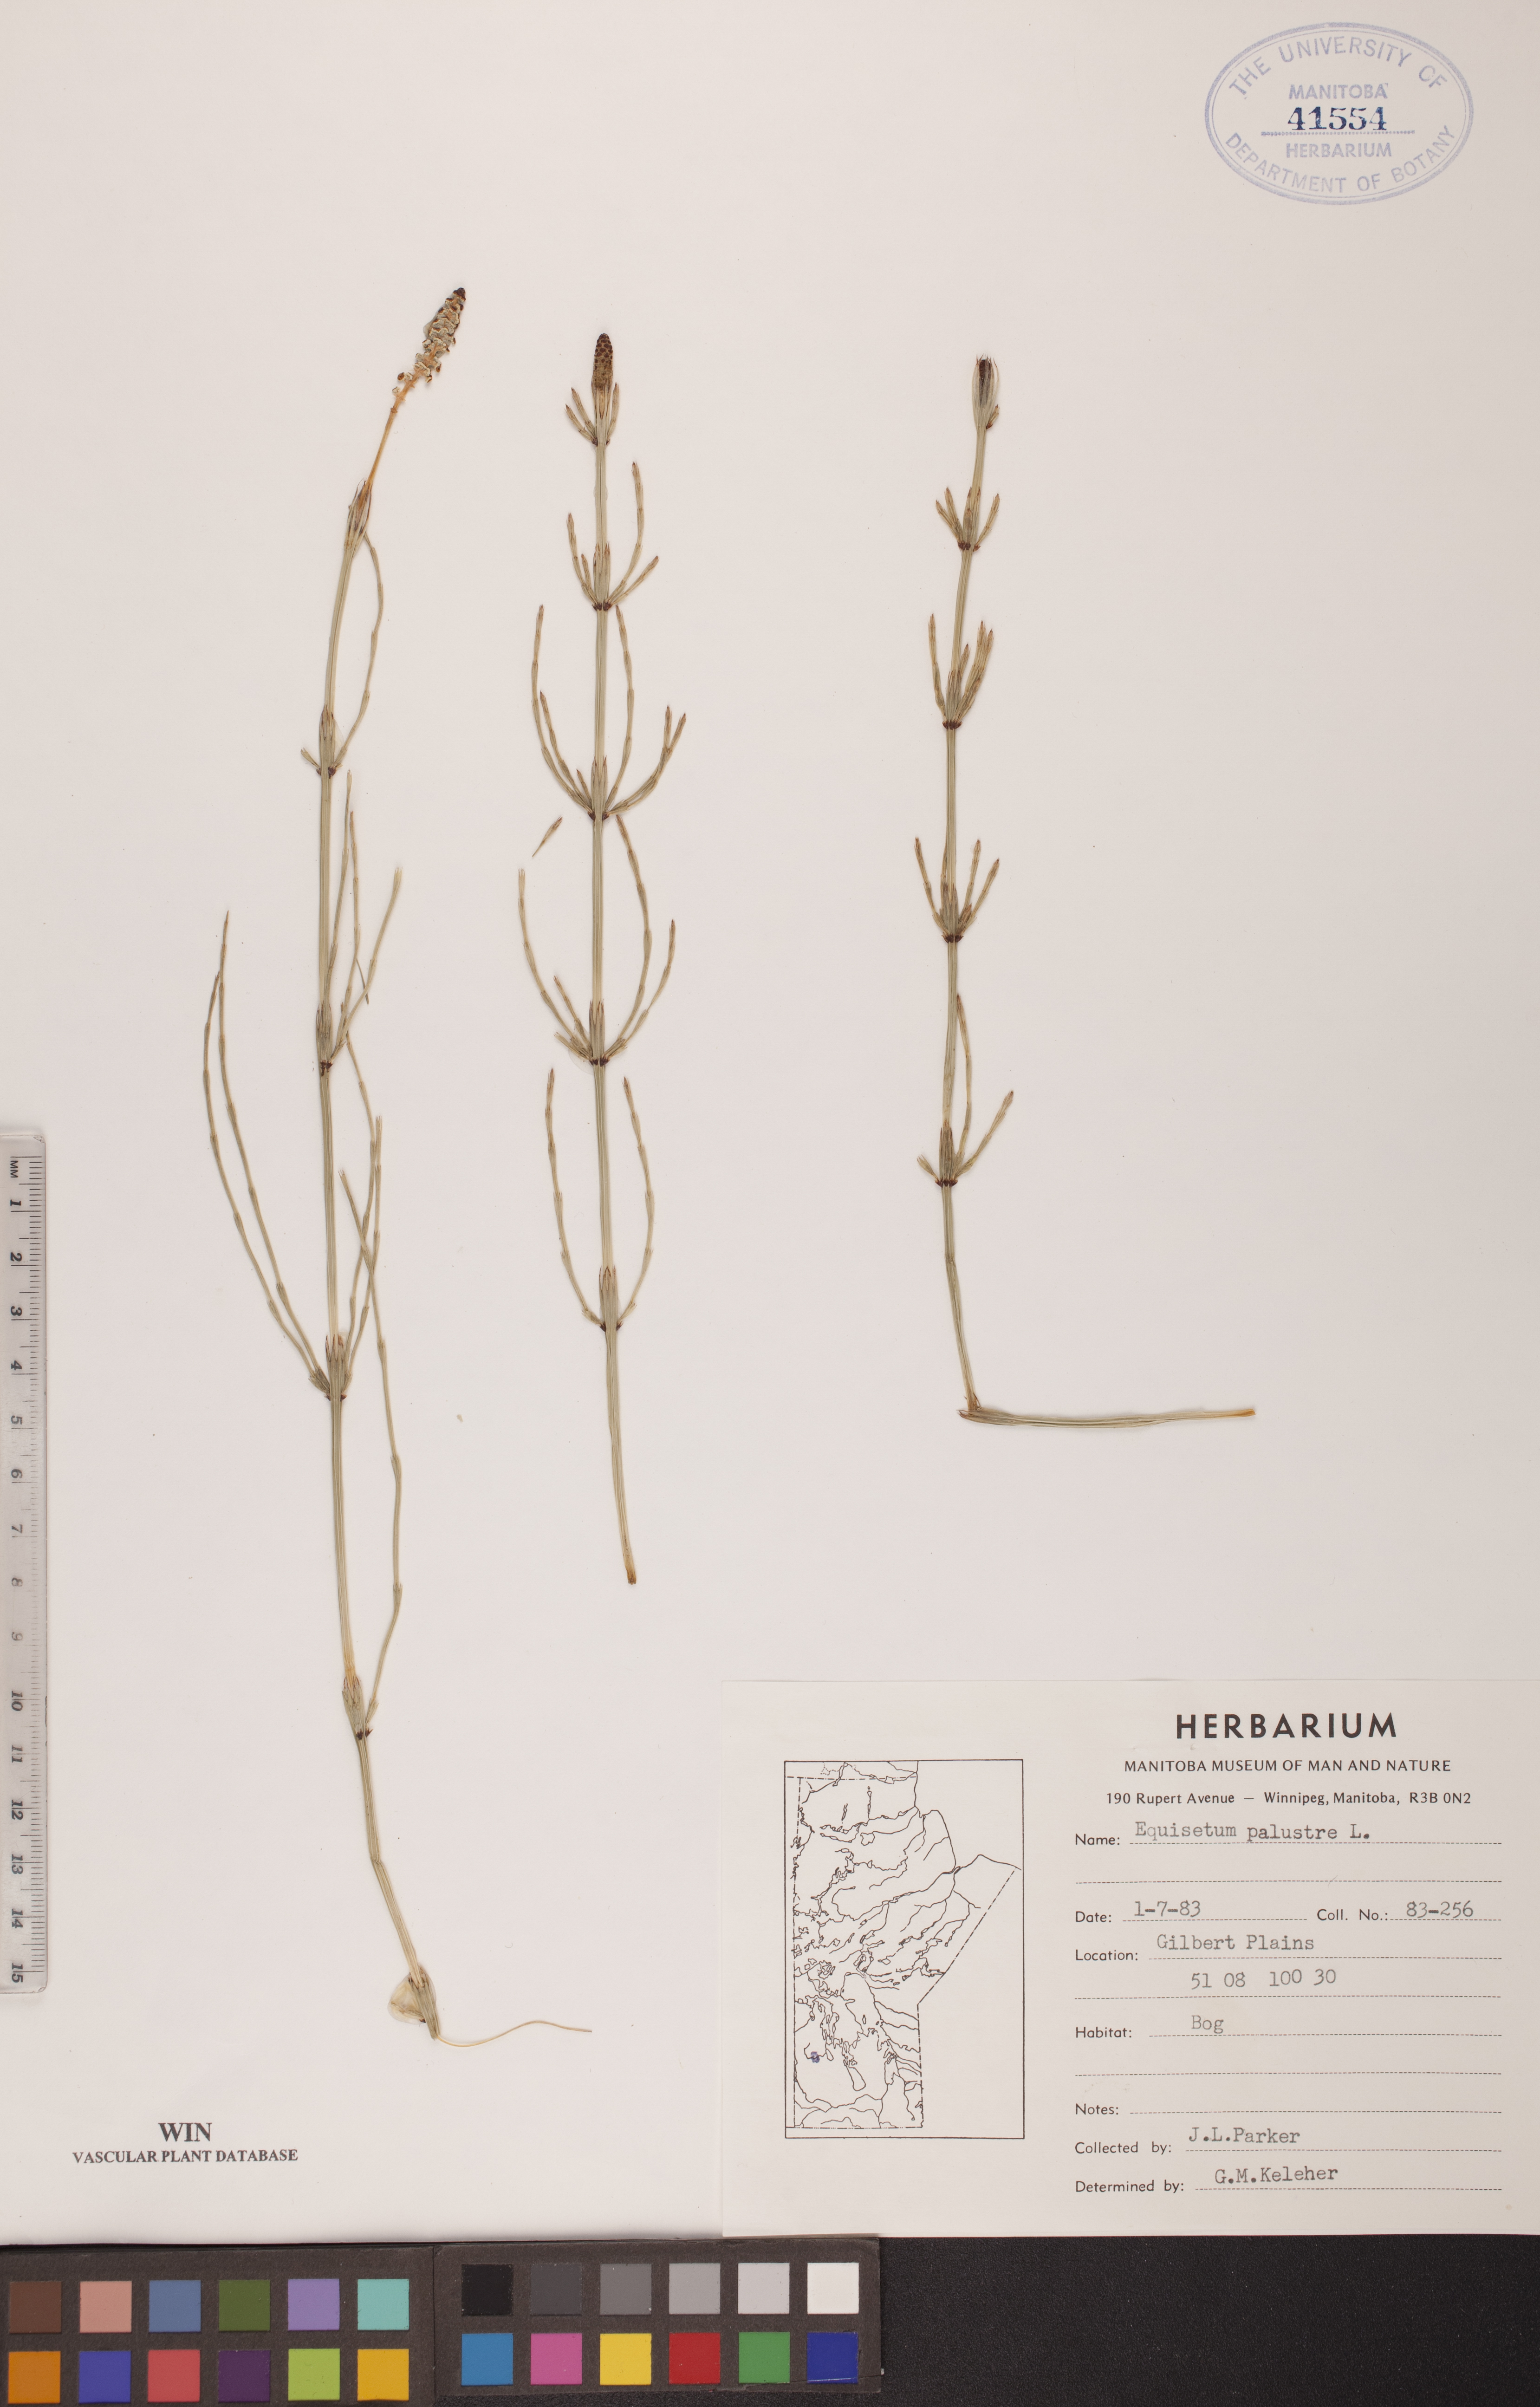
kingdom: Plantae
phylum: Tracheophyta
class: Polypodiopsida
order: Equisetales
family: Equisetaceae
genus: Equisetum
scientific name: Equisetum palustre
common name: Marsh horsetail
